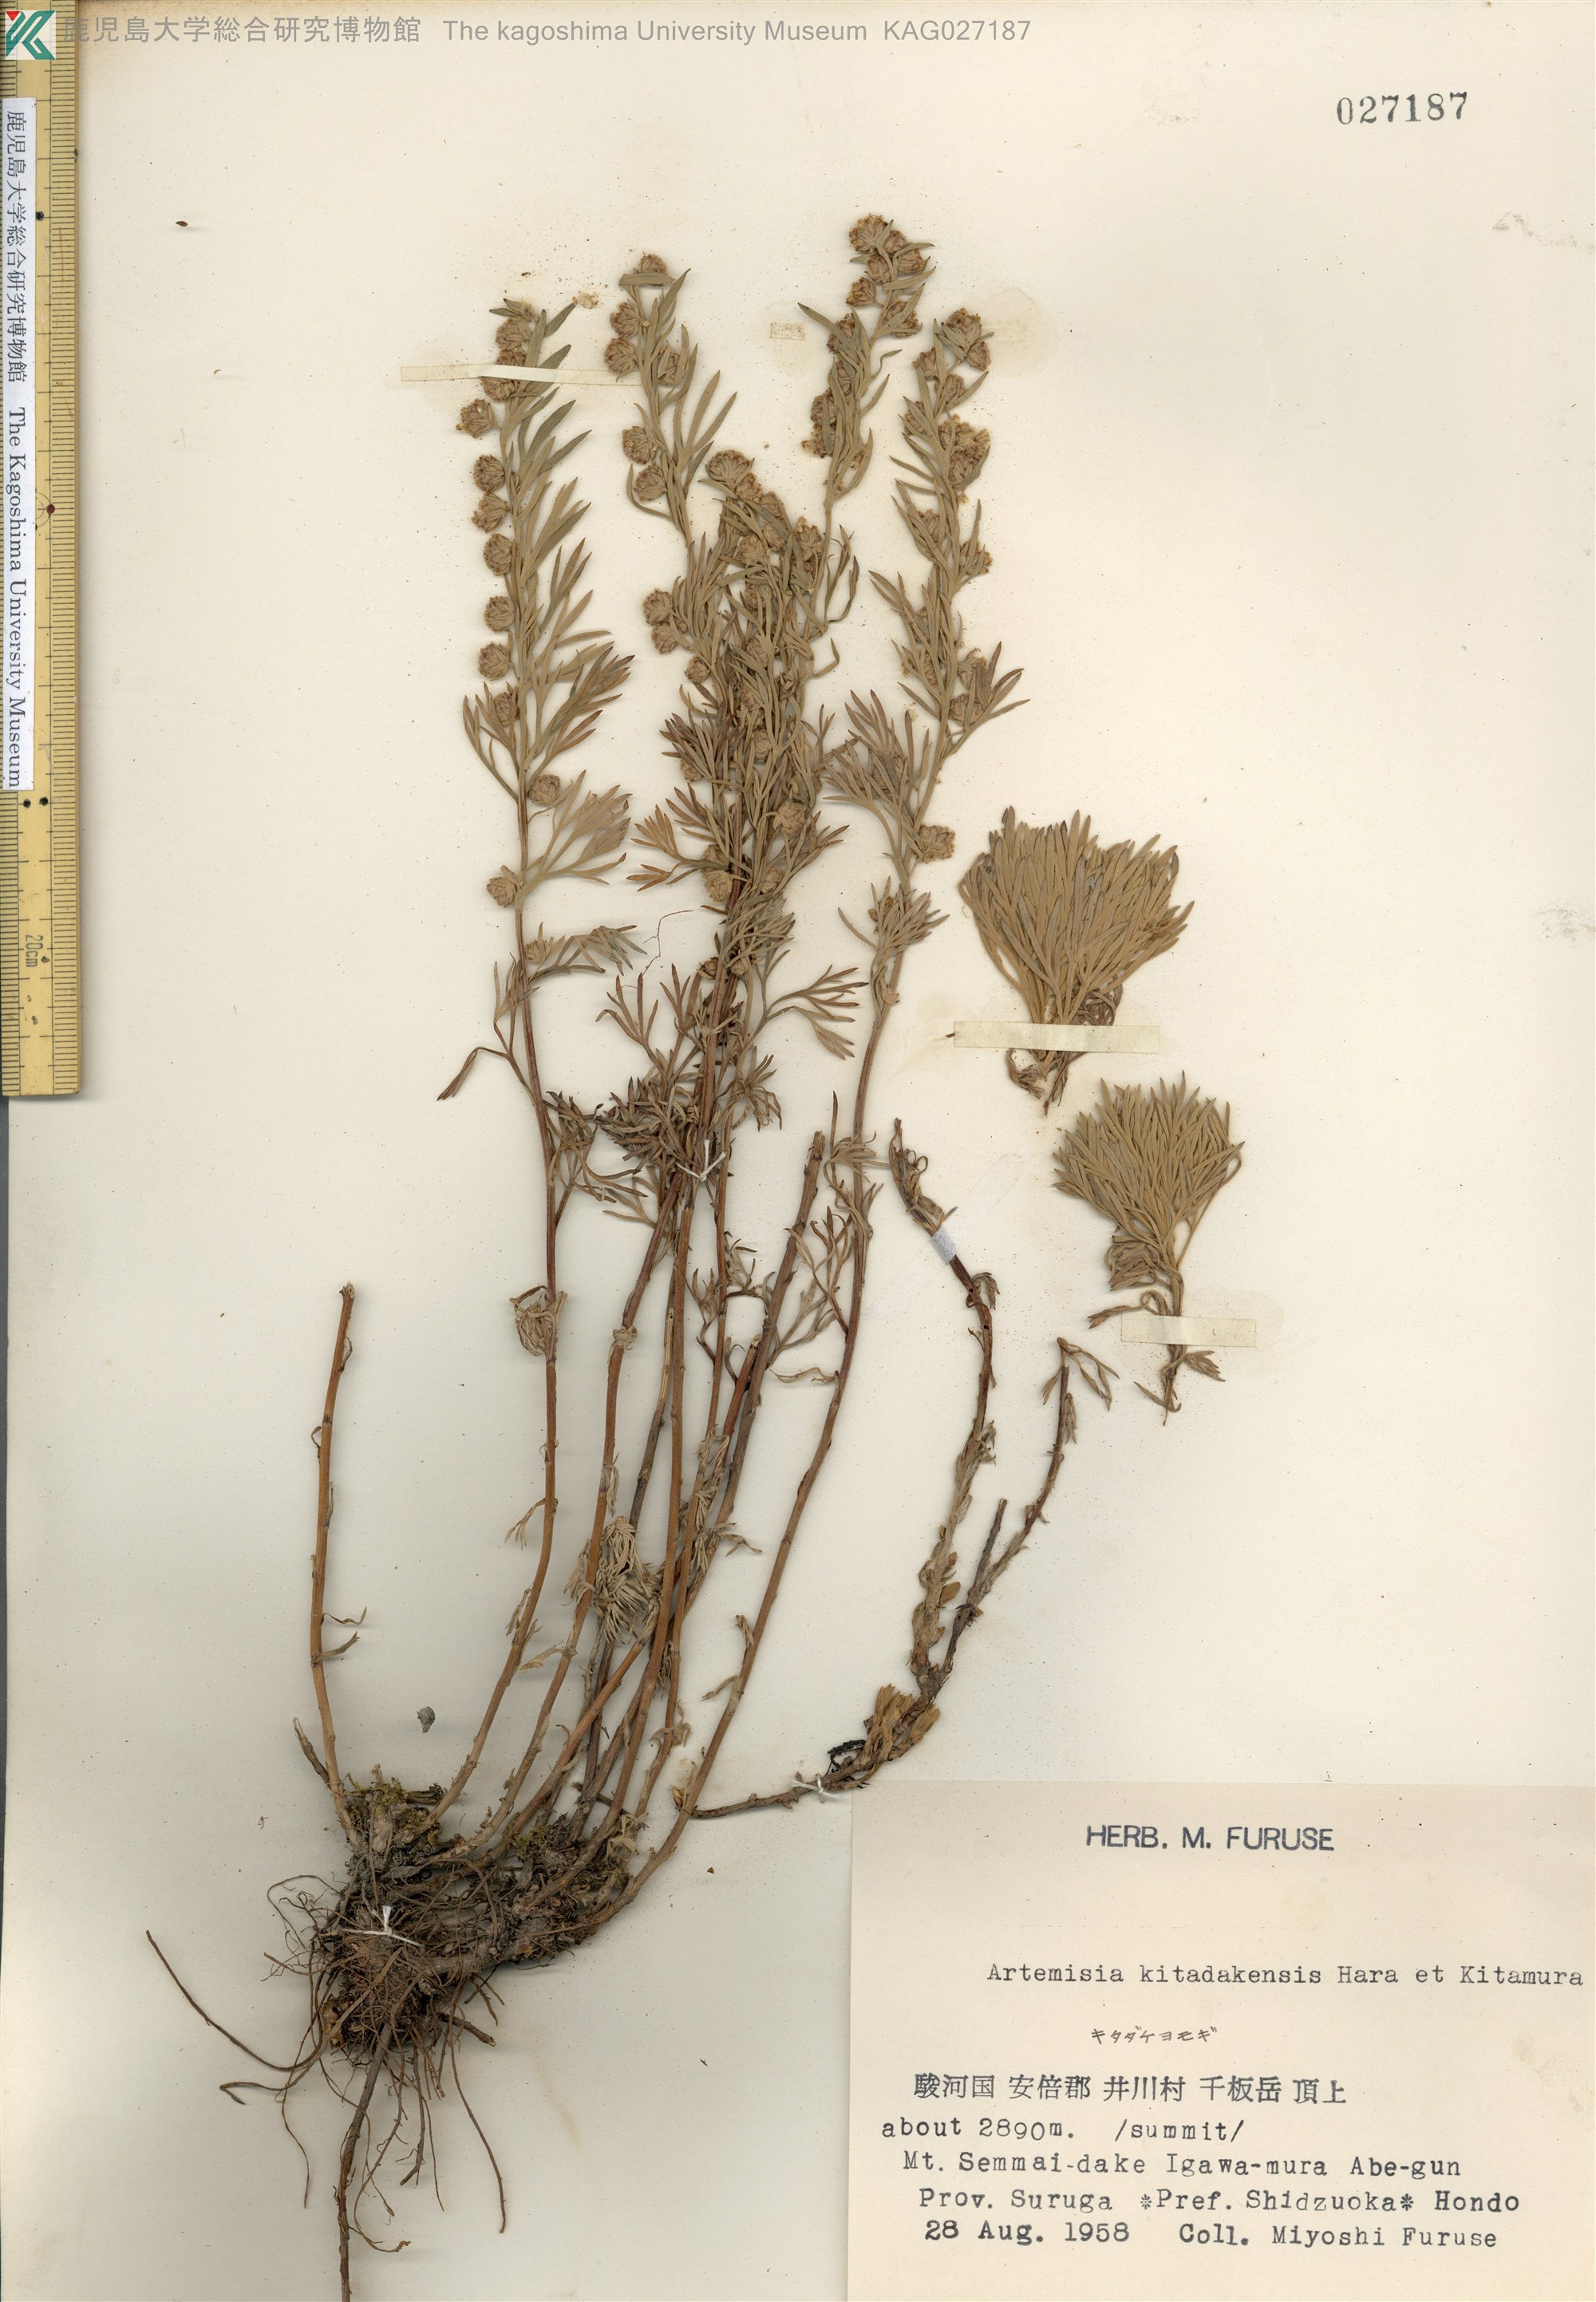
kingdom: Plantae
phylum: Tracheophyta
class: Magnoliopsida
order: Asterales
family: Asteraceae
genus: Artemisia
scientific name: Artemisia kitadakensis
